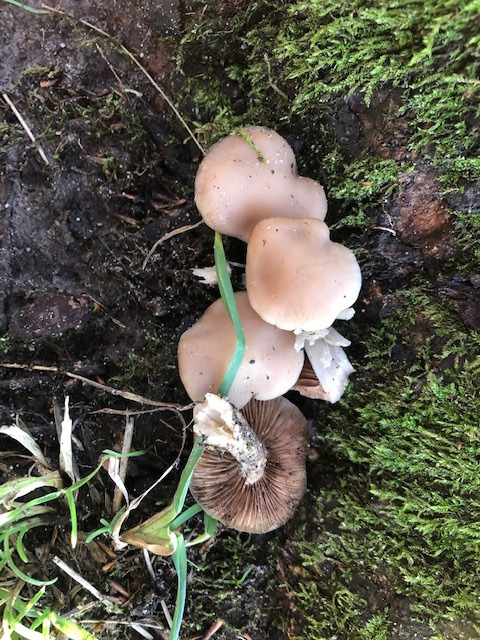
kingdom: Fungi
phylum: Basidiomycota
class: Agaricomycetes
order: Agaricales
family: Psathyrellaceae
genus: Homophron
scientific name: Homophron cernuum
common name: hvidlig mørkhat
